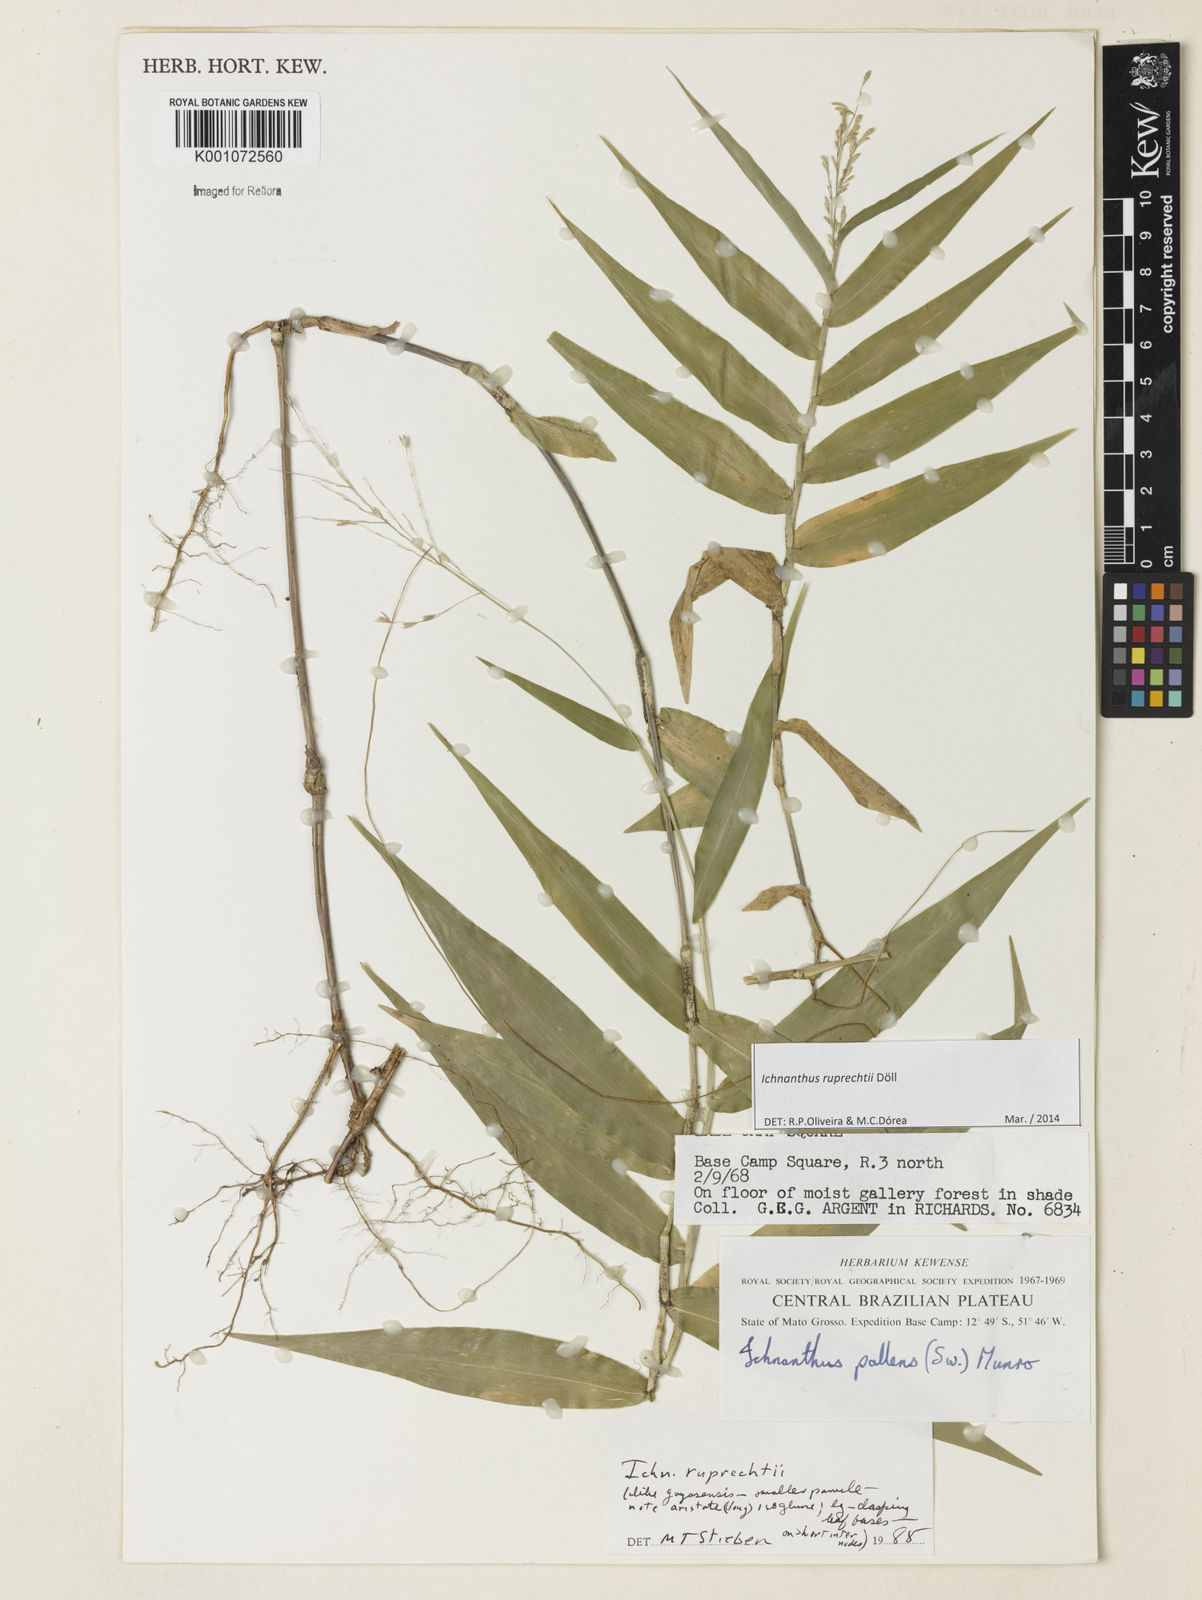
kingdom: Plantae
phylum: Tracheophyta
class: Liliopsida
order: Poales
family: Poaceae
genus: Ichnanthus
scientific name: Ichnanthus
